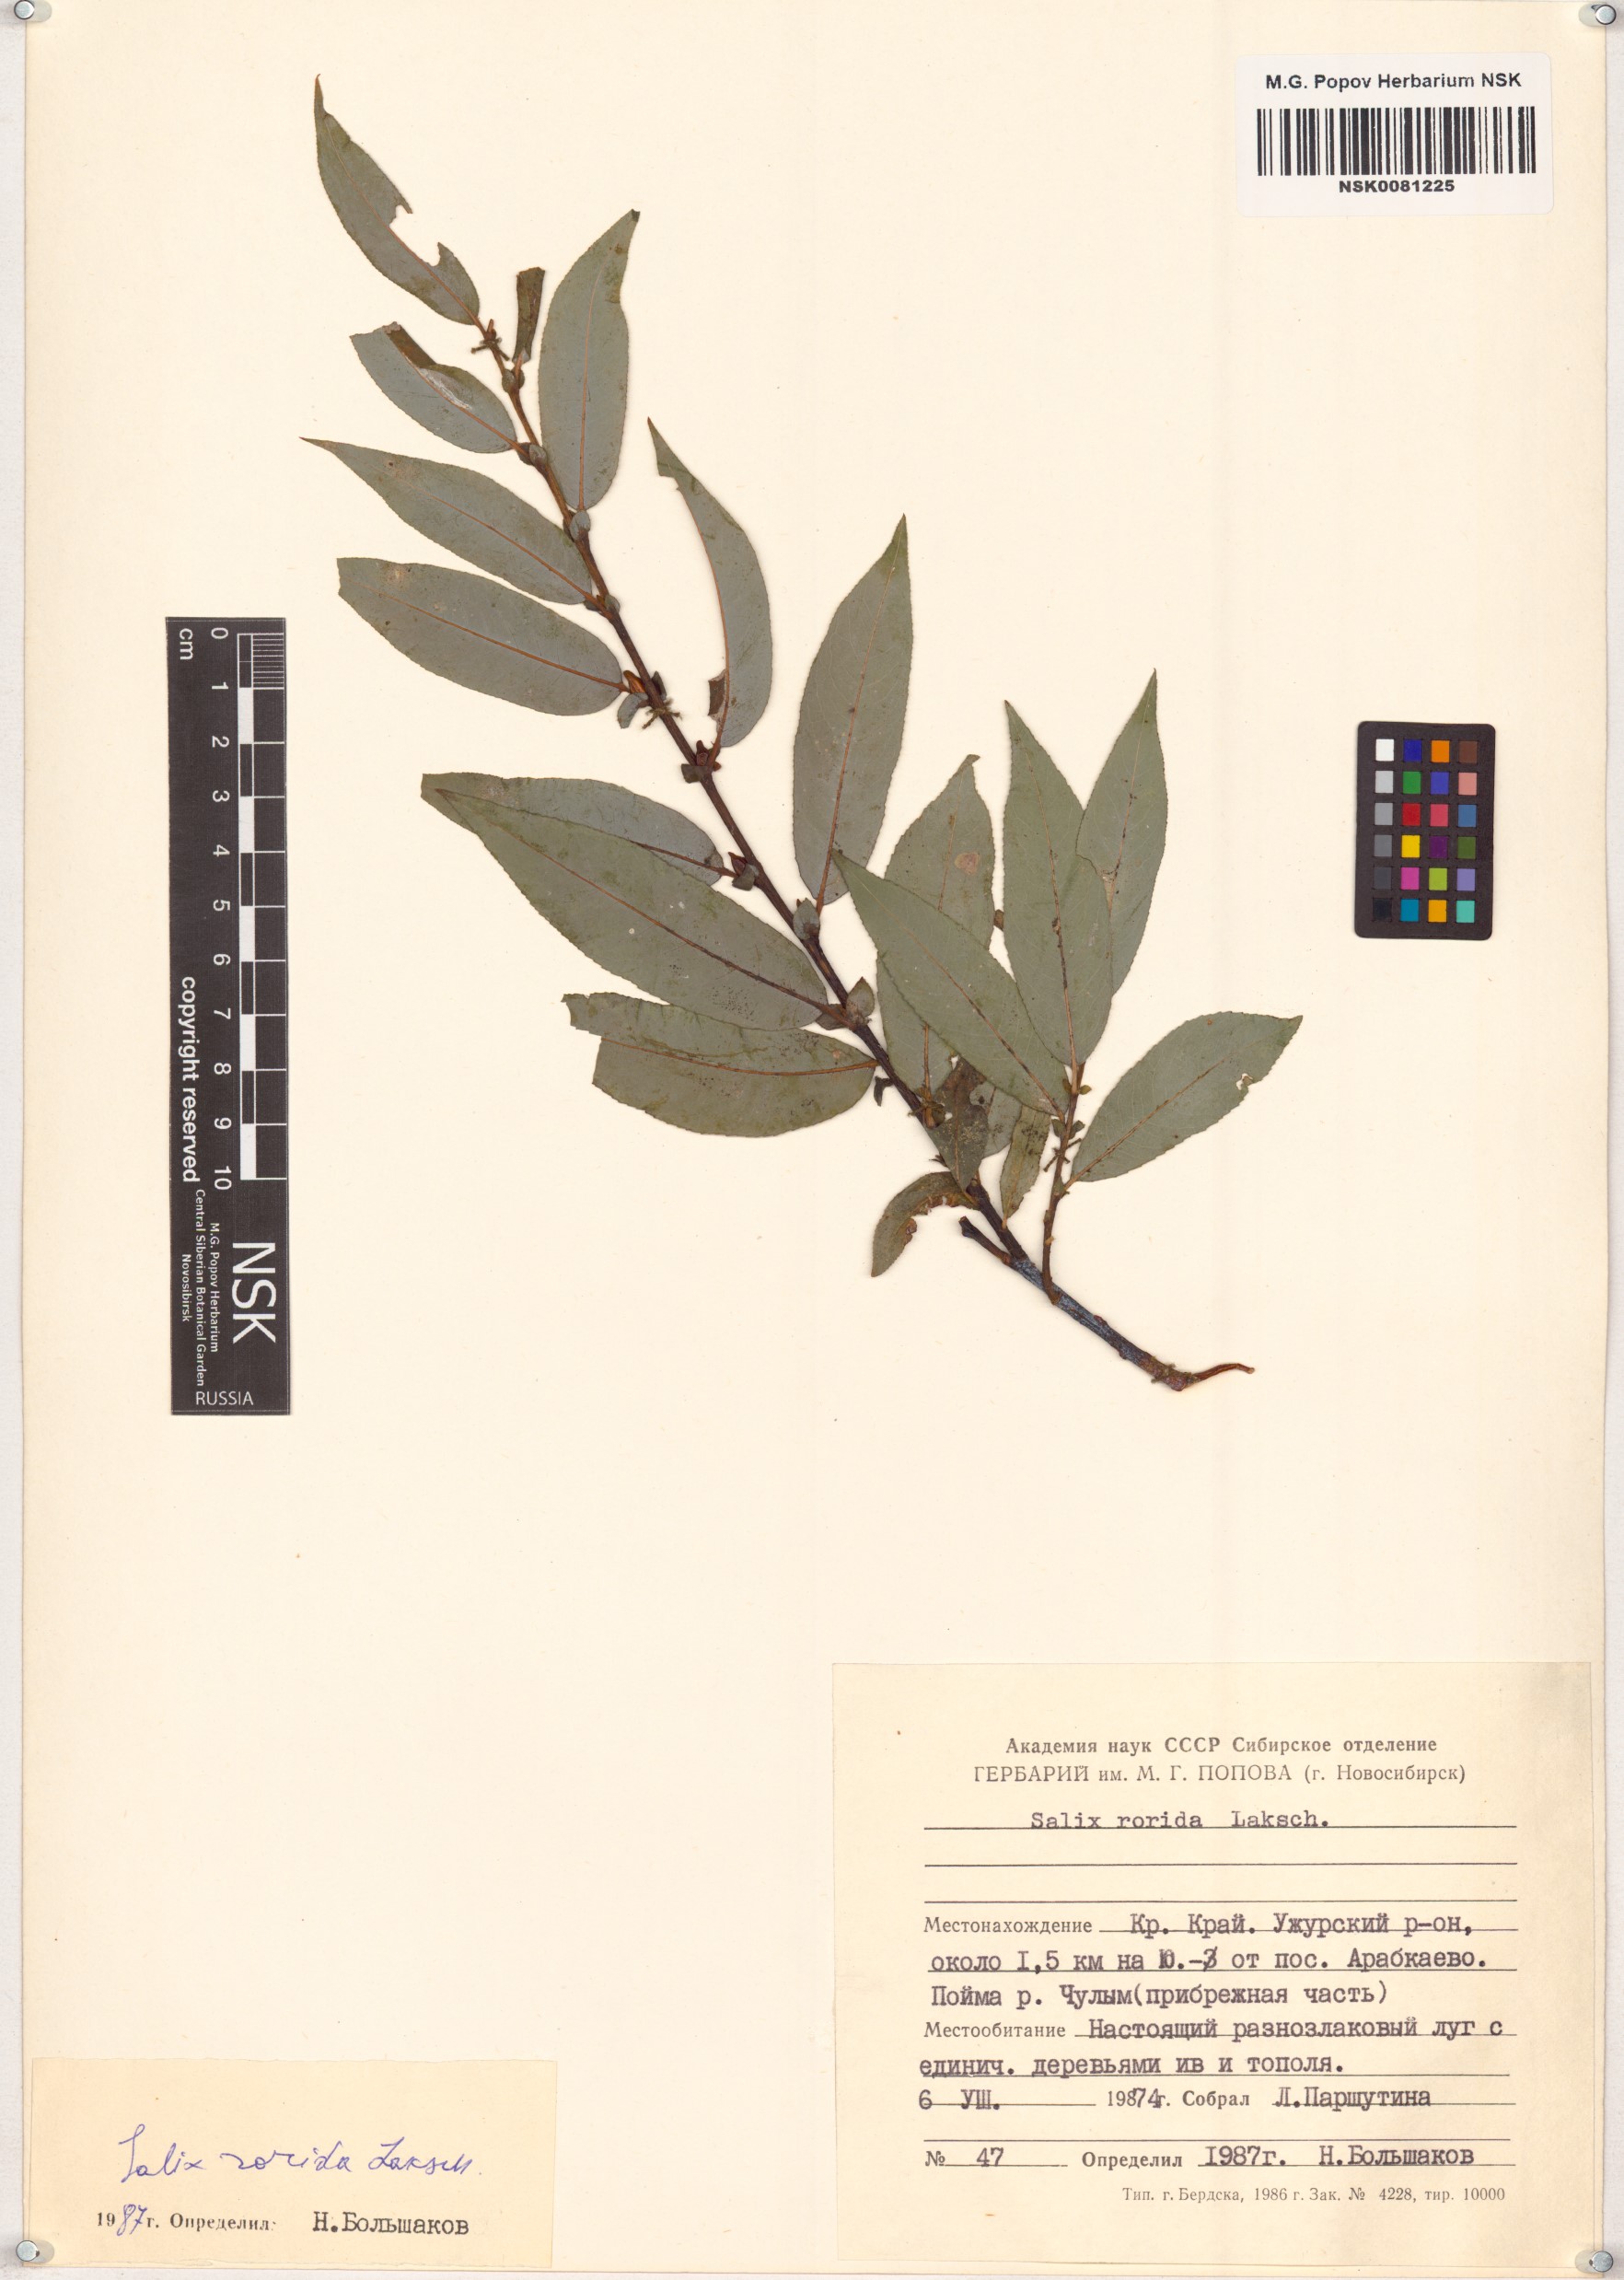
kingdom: Plantae
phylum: Tracheophyta
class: Magnoliopsida
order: Malpighiales
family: Salicaceae
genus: Salix
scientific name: Salix rorida
